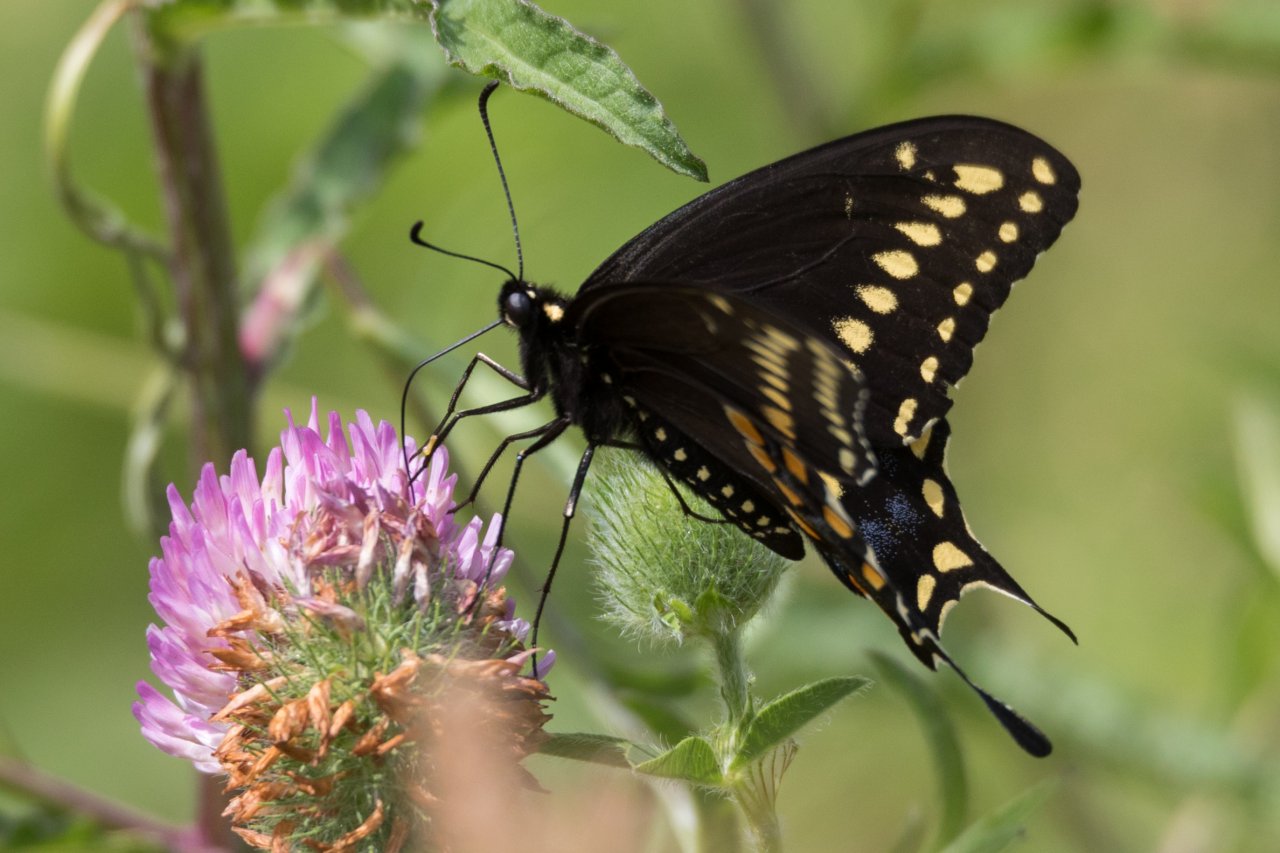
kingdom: Animalia
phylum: Arthropoda
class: Insecta
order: Lepidoptera
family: Papilionidae
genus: Papilio
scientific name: Papilio polyxenes
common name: Black Swallowtail
